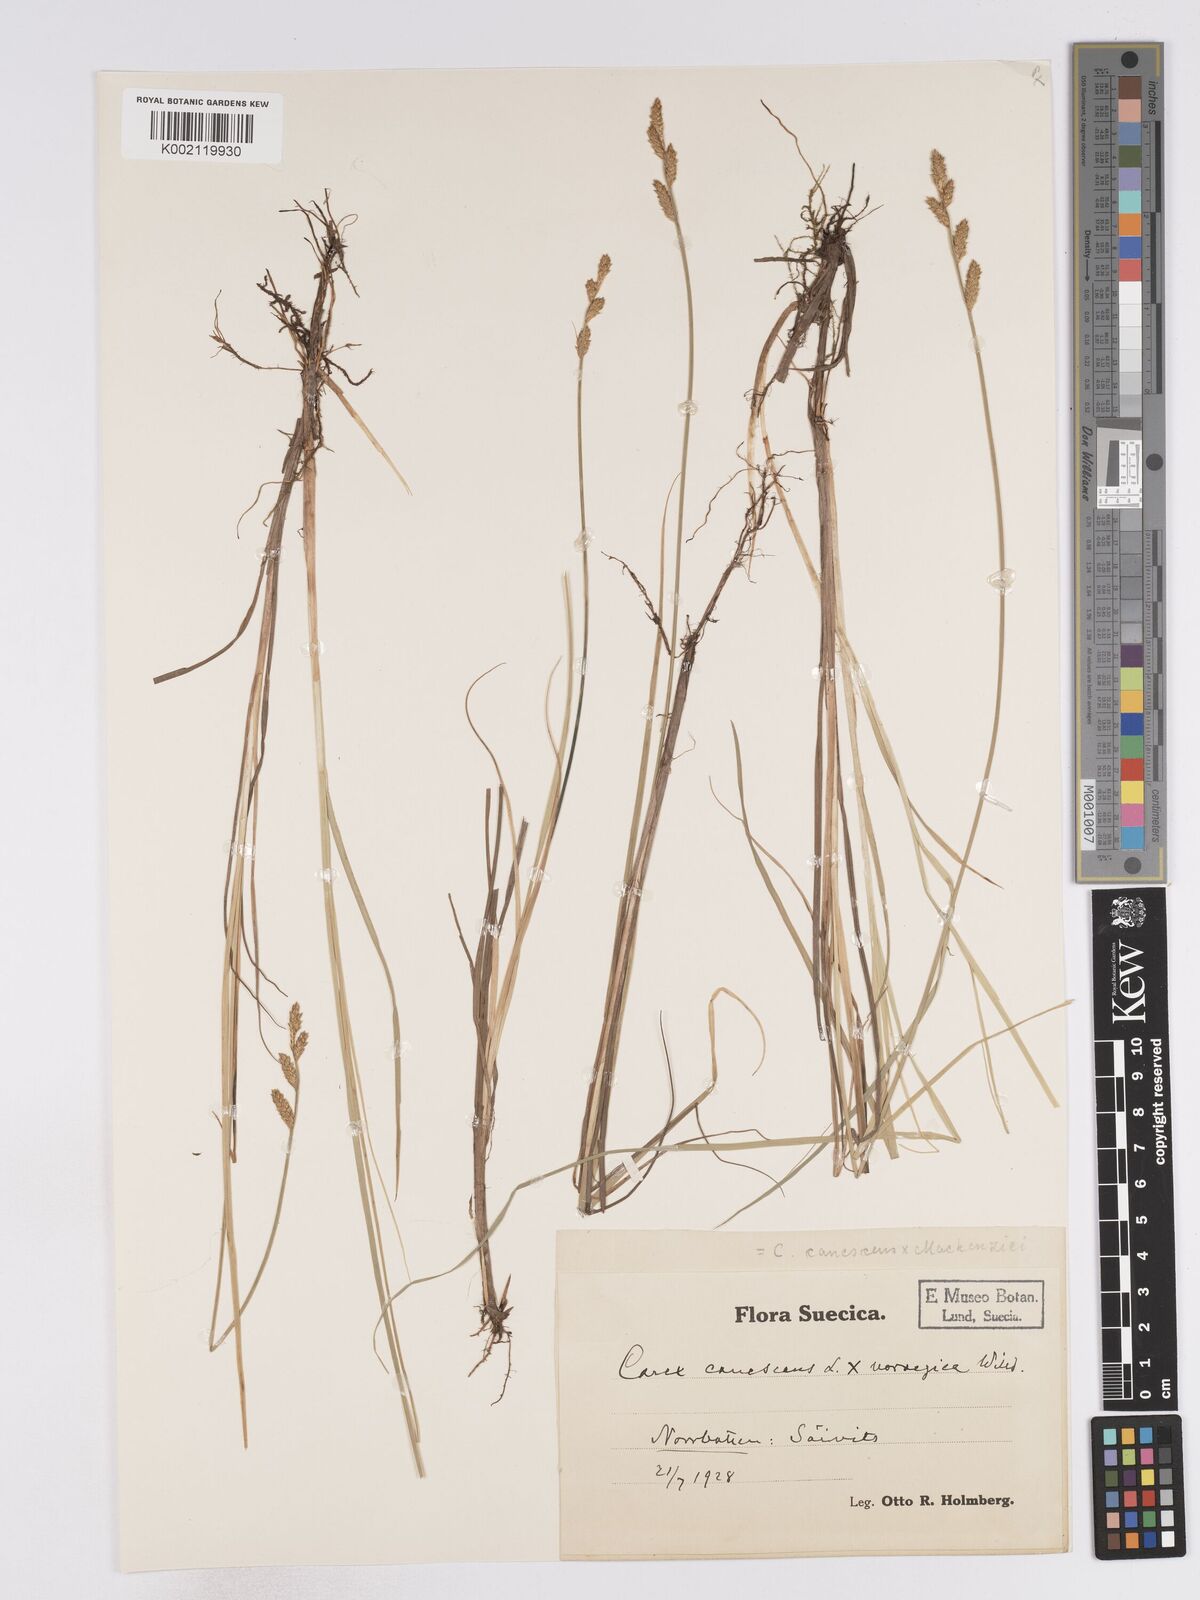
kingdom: Plantae
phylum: Tracheophyta
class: Liliopsida
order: Poales
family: Cyperaceae
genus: Carex
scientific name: Carex curta
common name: White sedge
